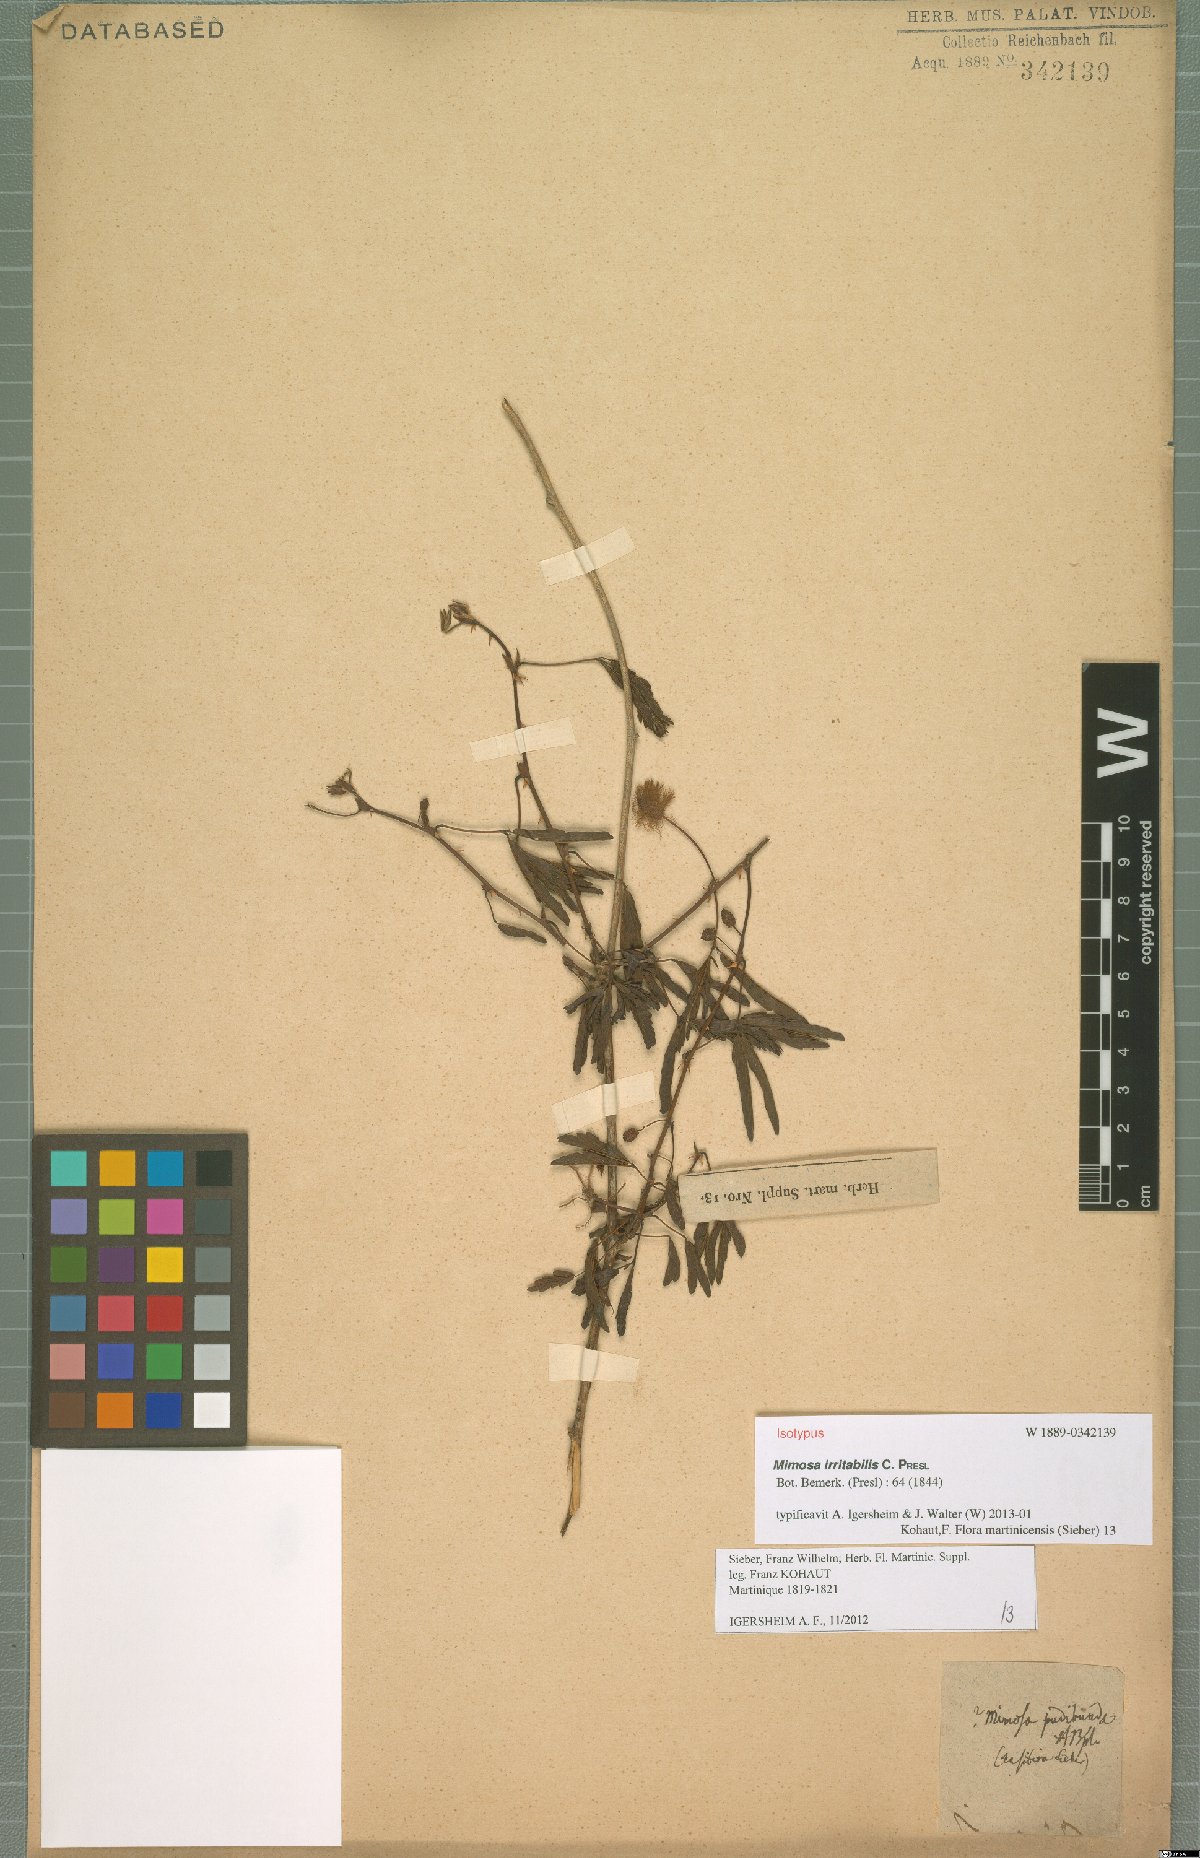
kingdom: Plantae
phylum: Tracheophyta
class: Magnoliopsida
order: Fabales
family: Fabaceae
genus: Mimosa
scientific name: Mimosa pudica
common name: Sensitive plant
